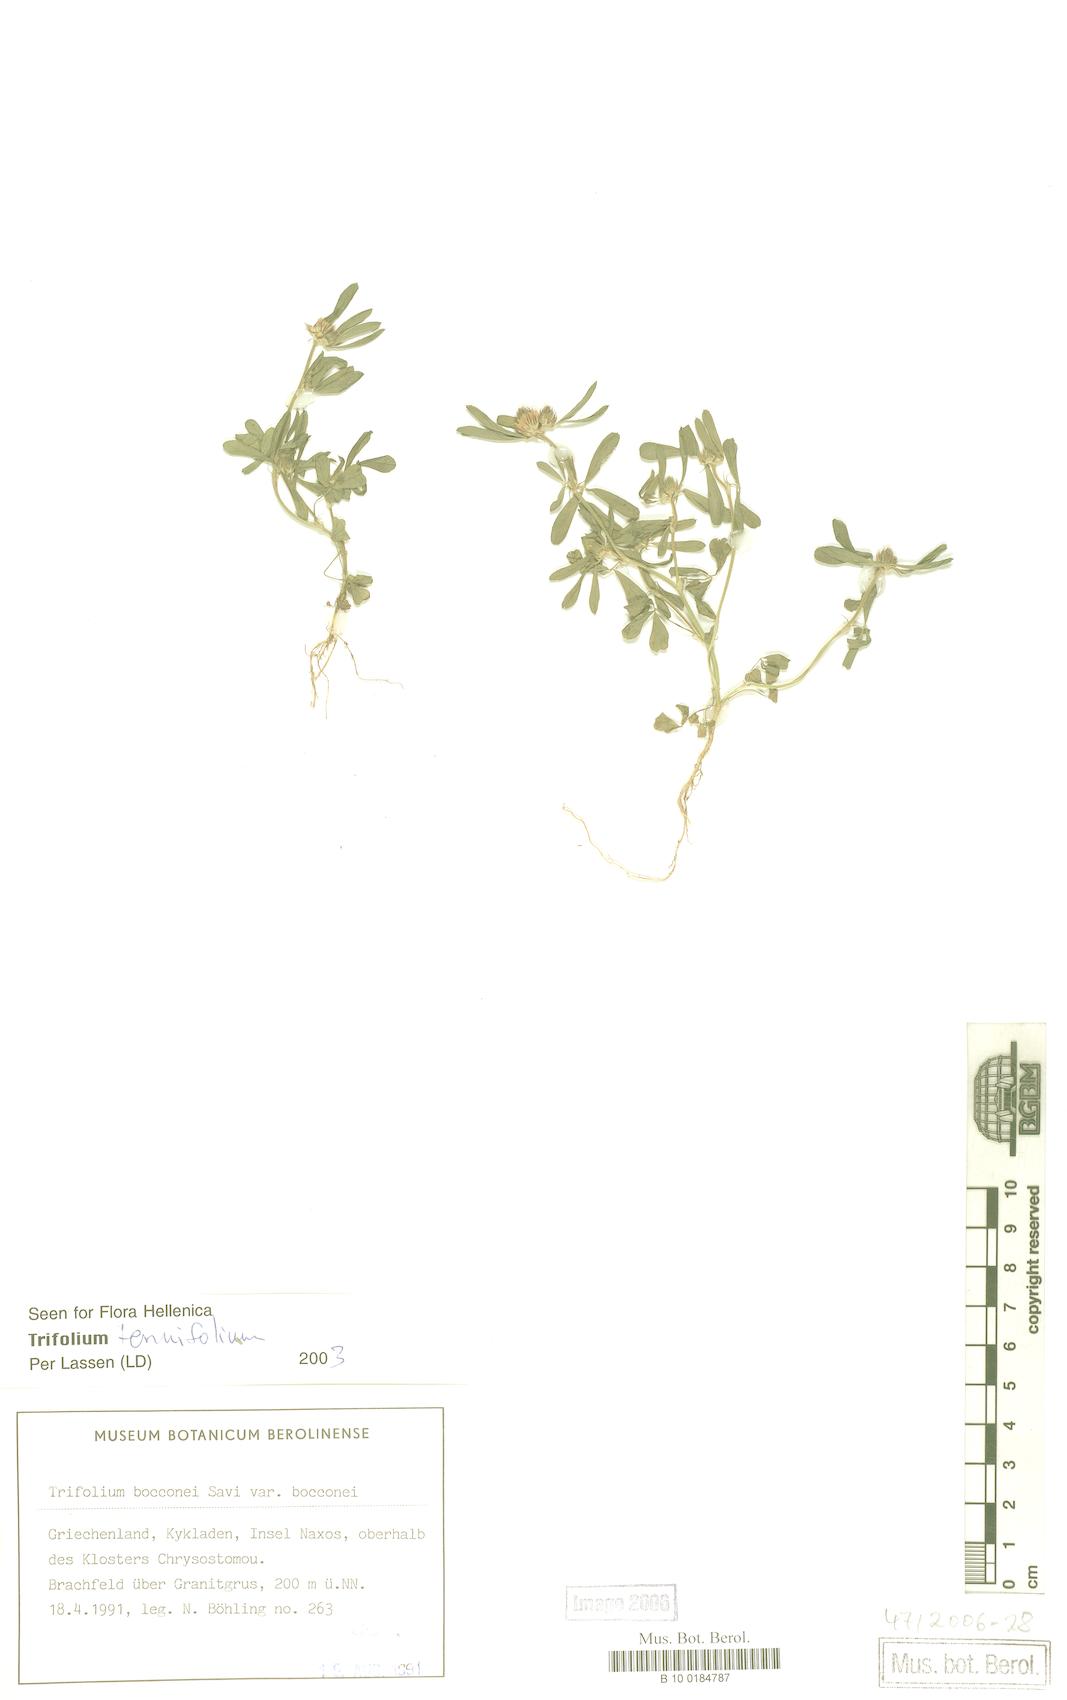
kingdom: Plantae
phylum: Tracheophyta
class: Magnoliopsida
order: Fabales
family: Fabaceae
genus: Trifolium
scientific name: Trifolium tenuifolium
